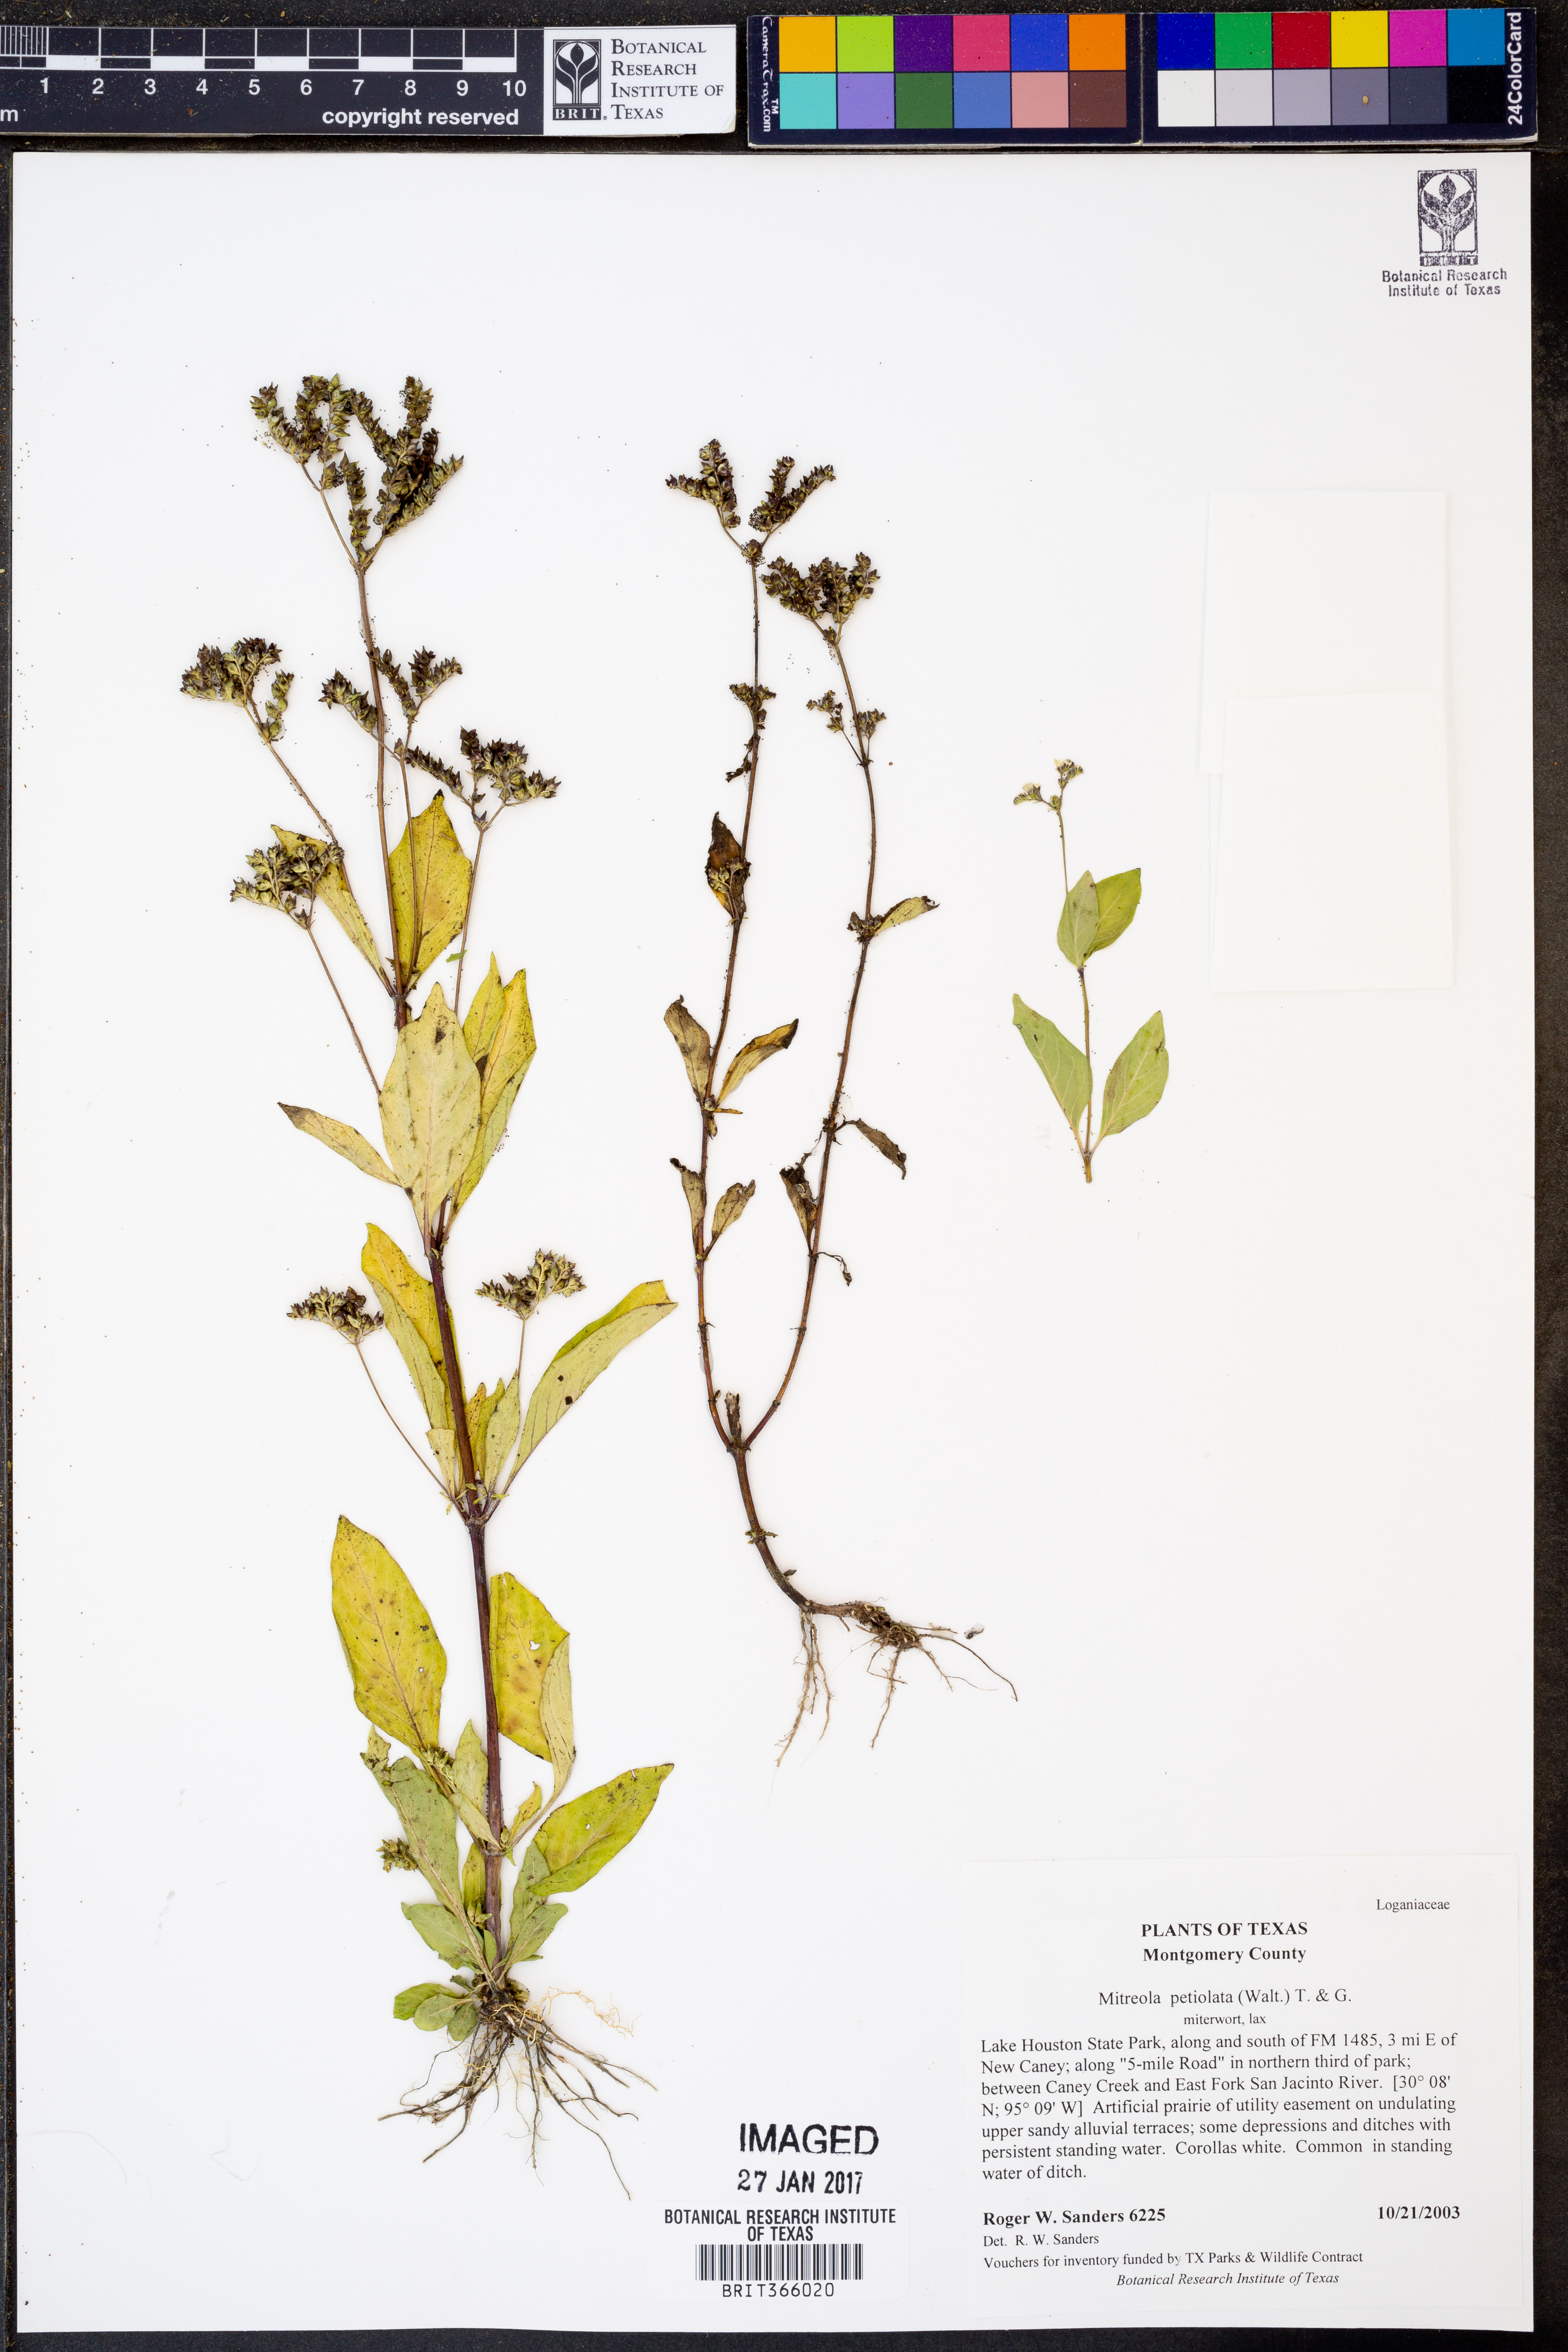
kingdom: Plantae
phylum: Tracheophyta
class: Magnoliopsida
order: Gentianales
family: Loganiaceae
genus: Mitreola
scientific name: Mitreola petiolata
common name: Lax hornpod
